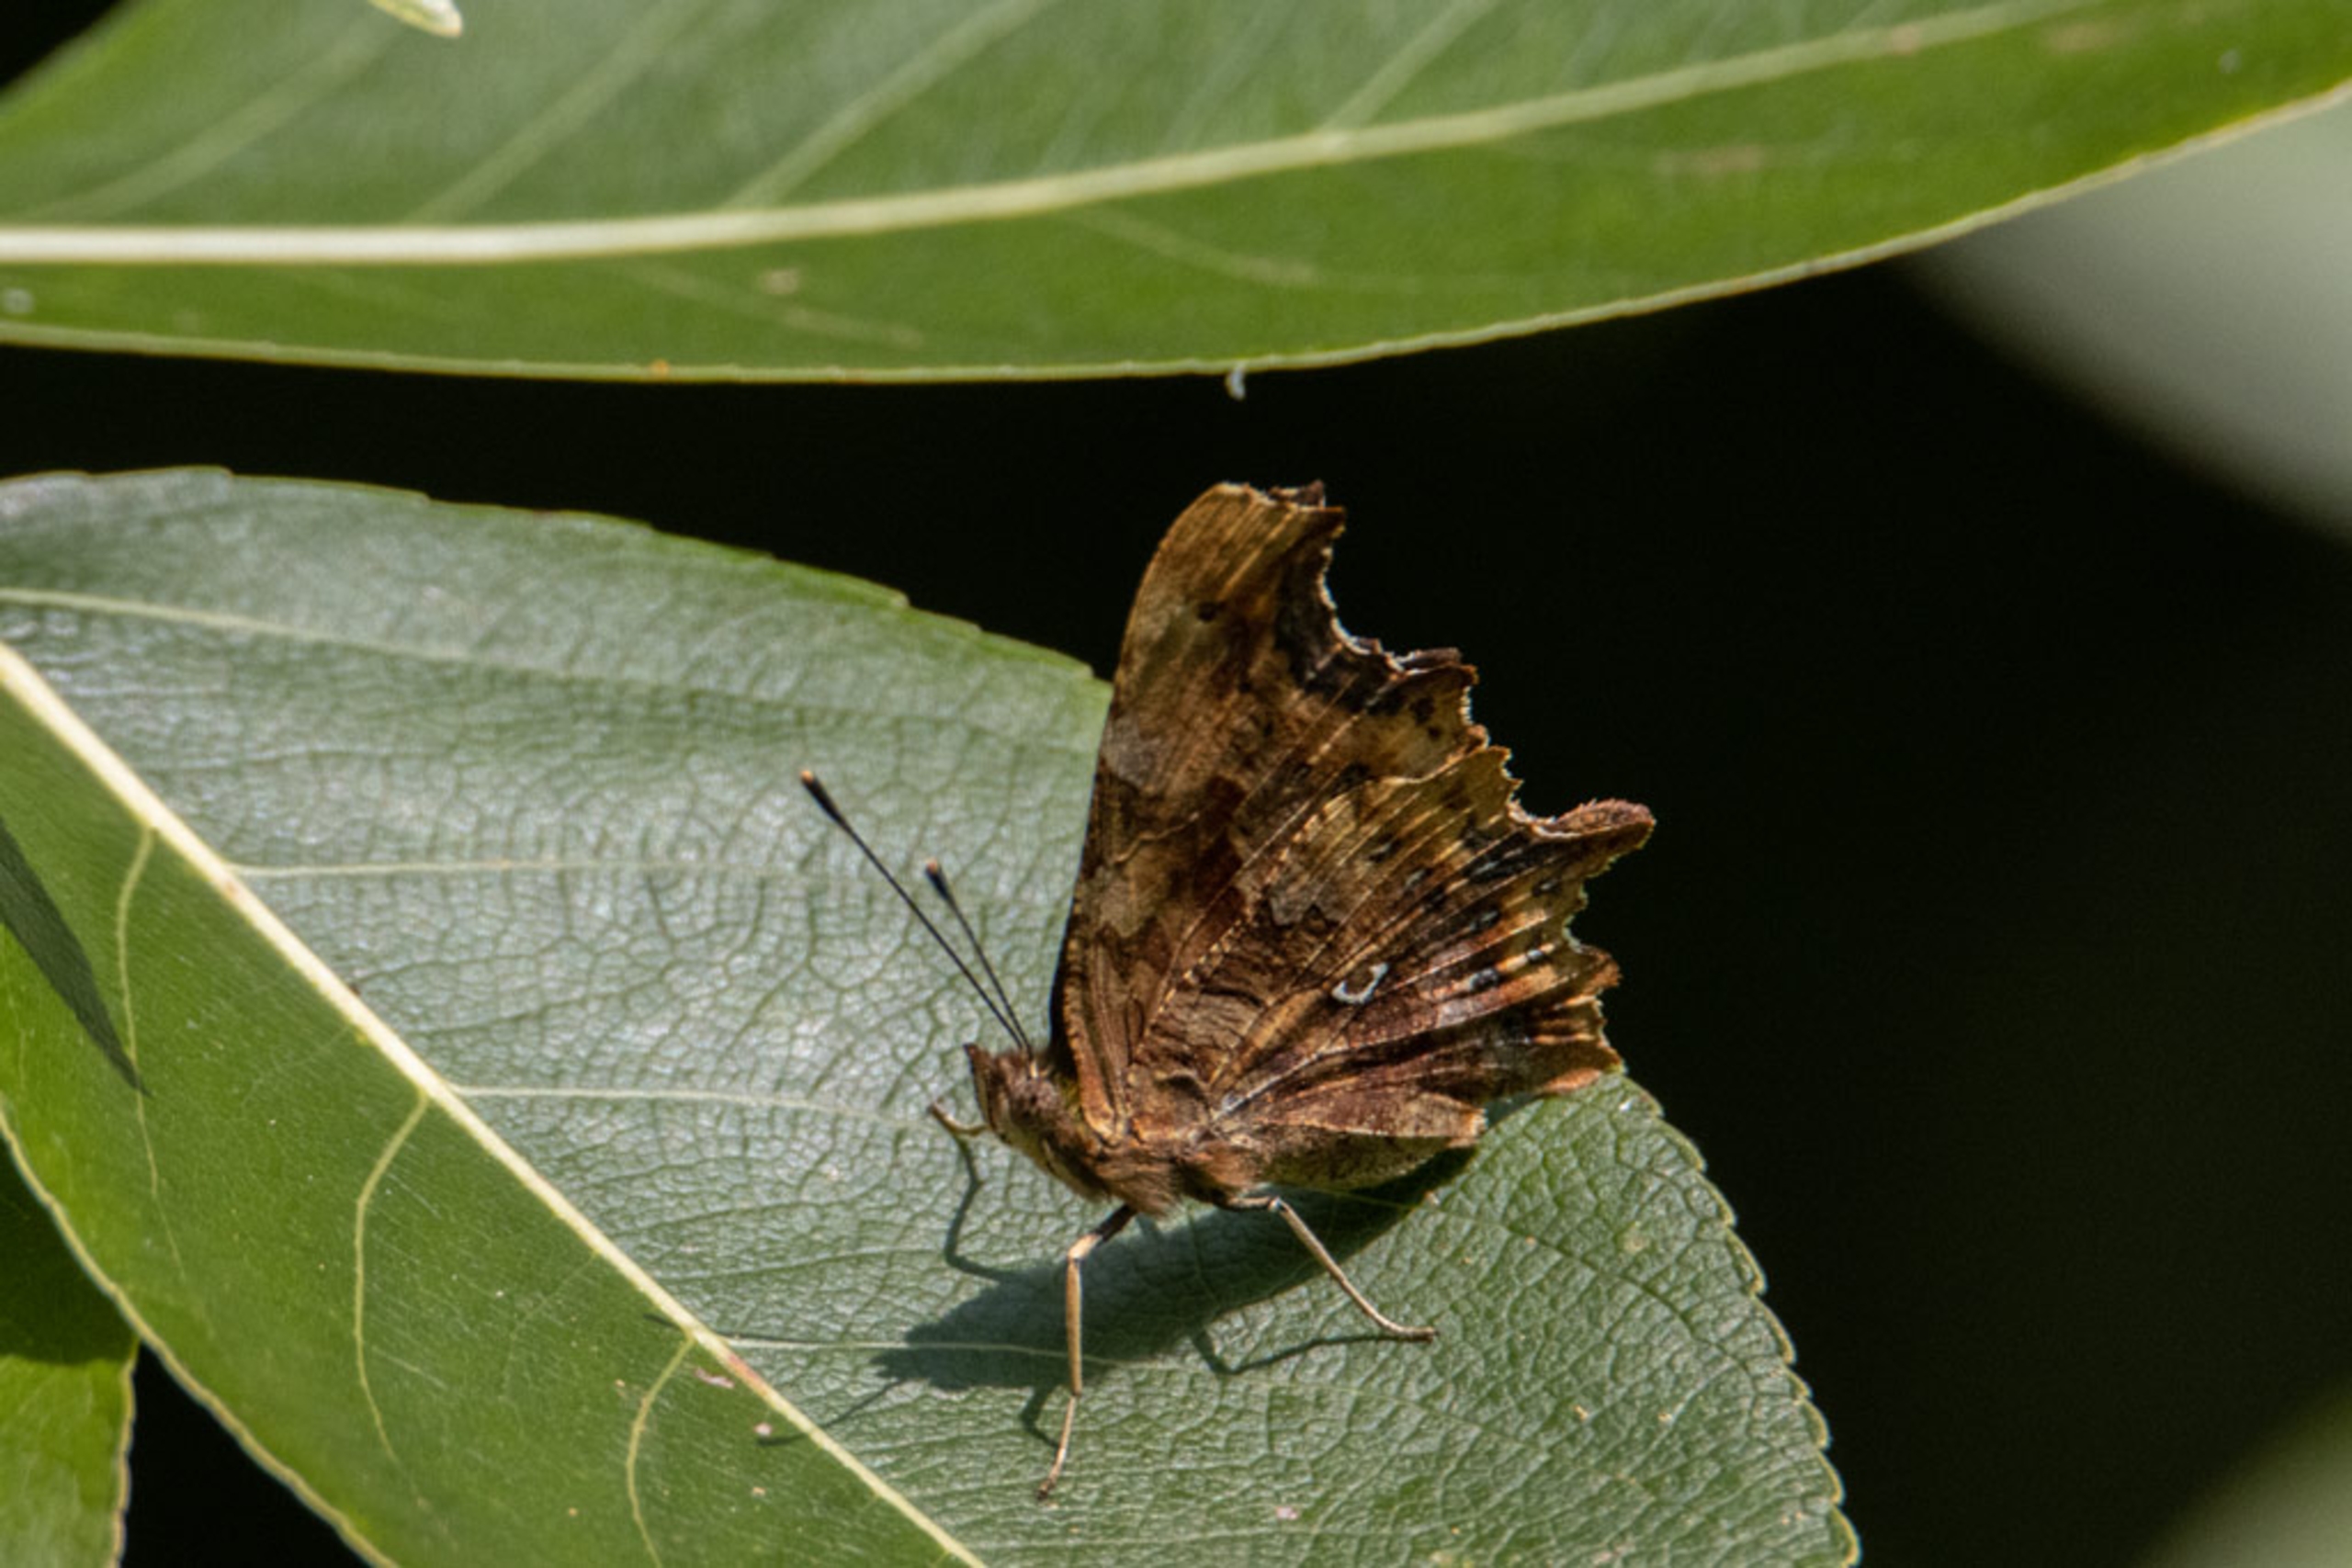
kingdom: Animalia
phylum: Arthropoda
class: Insecta
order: Lepidoptera
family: Nymphalidae
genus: Polygonia
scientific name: Polygonia c-album
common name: Det hvide C
